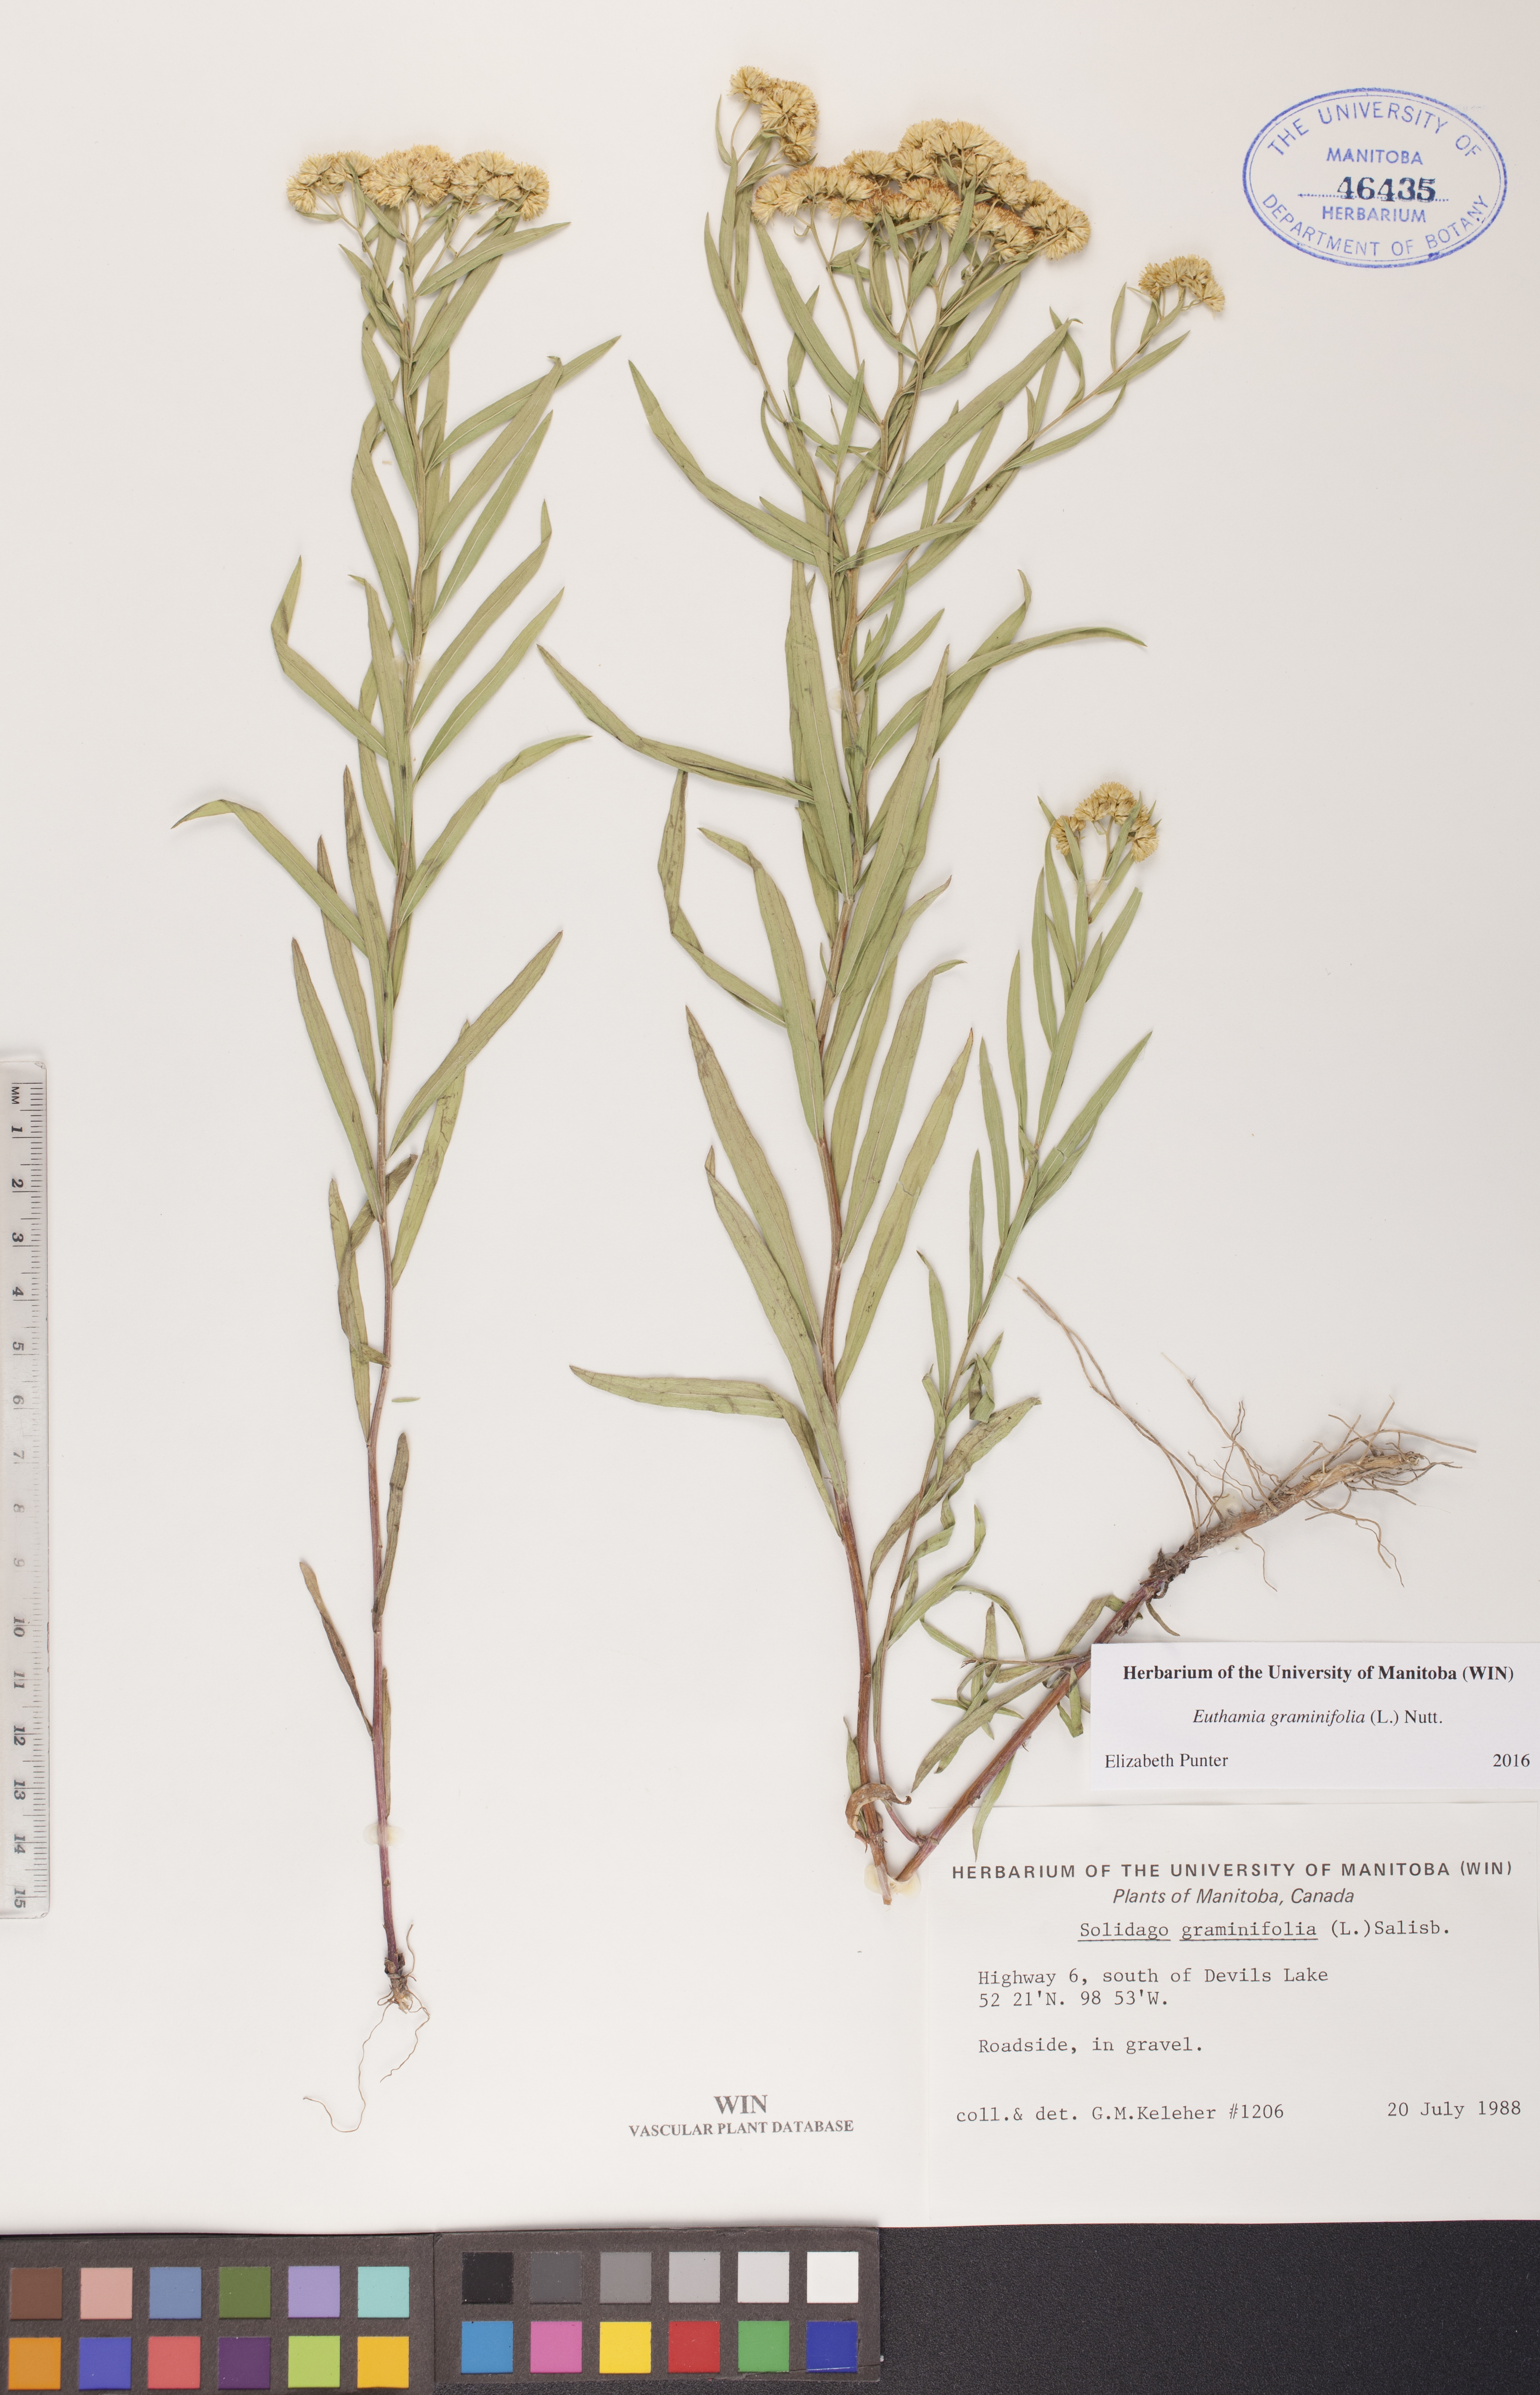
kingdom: Plantae
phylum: Tracheophyta
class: Magnoliopsida
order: Asterales
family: Asteraceae
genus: Euthamia
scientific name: Euthamia graminifolia
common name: Common goldentop
